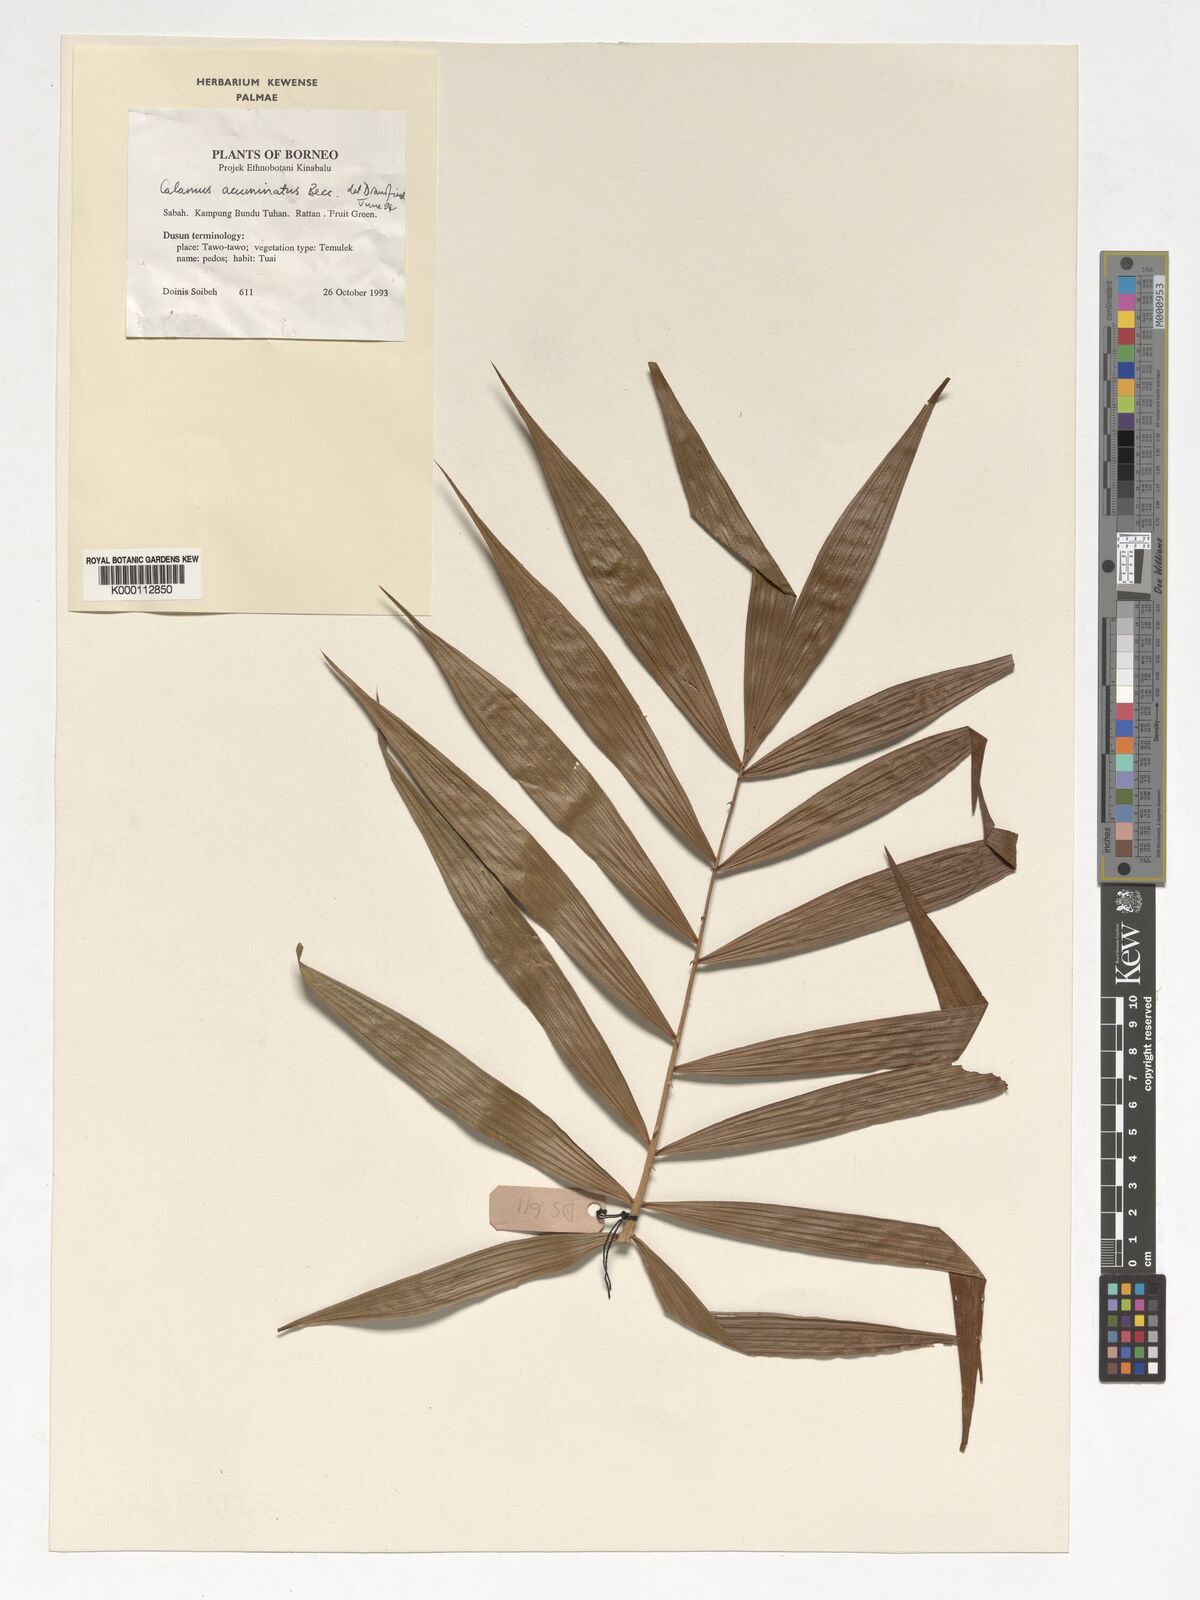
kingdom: Plantae
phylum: Tracheophyta
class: Liliopsida
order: Arecales
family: Arecaceae
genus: Calamus
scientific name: Calamus javensis
